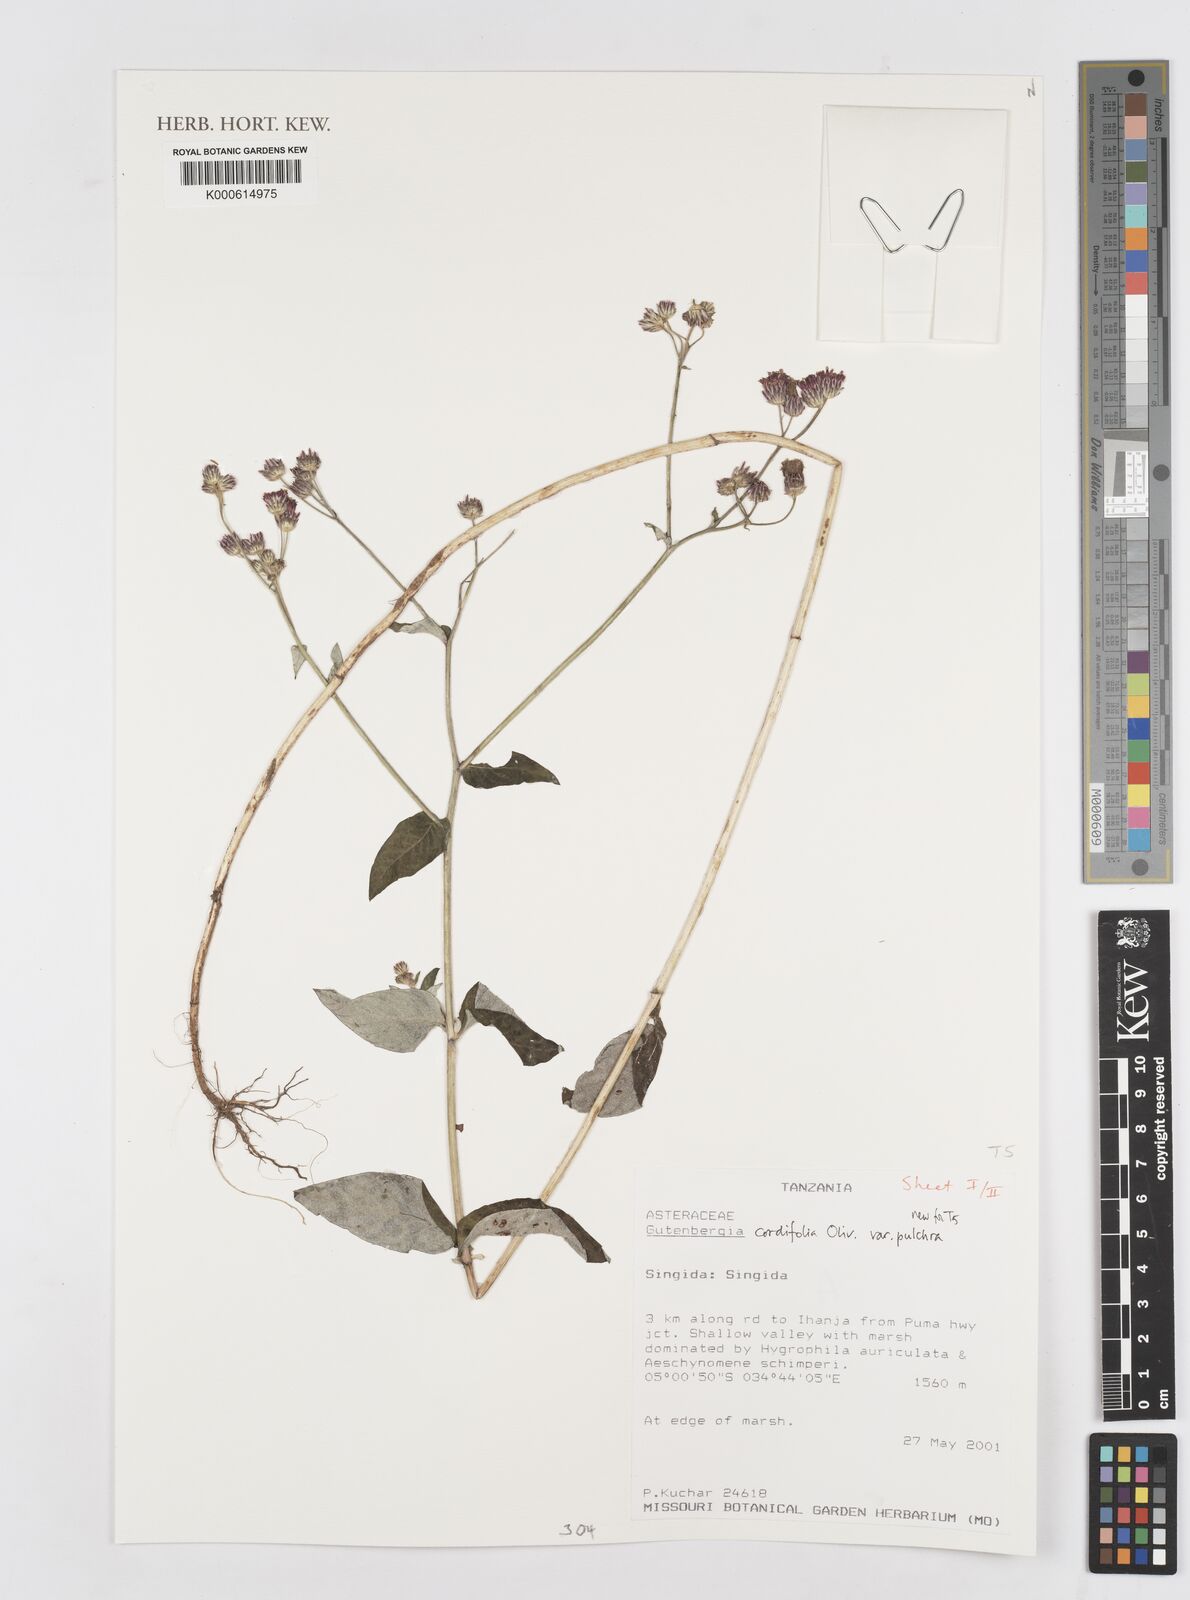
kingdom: Plantae
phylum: Tracheophyta
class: Magnoliopsida
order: Asterales
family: Asteraceae
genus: Gutenbergia
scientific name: Gutenbergia cordifolia
